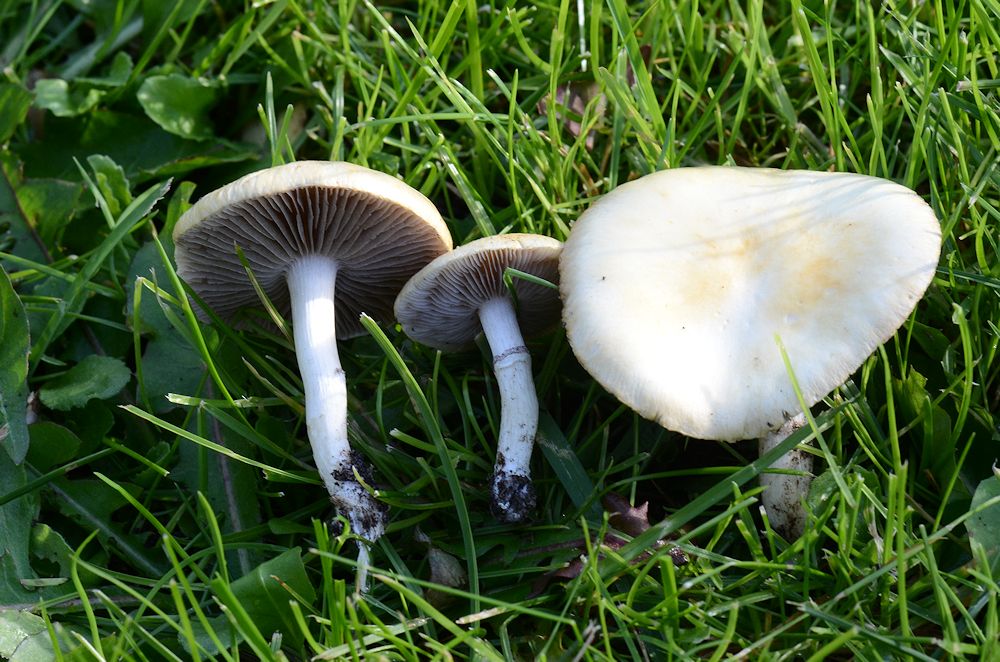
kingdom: Fungi
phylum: Basidiomycota
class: Agaricomycetes
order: Agaricales
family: Hymenogastraceae
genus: Psilocybe
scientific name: Psilocybe coronilla
